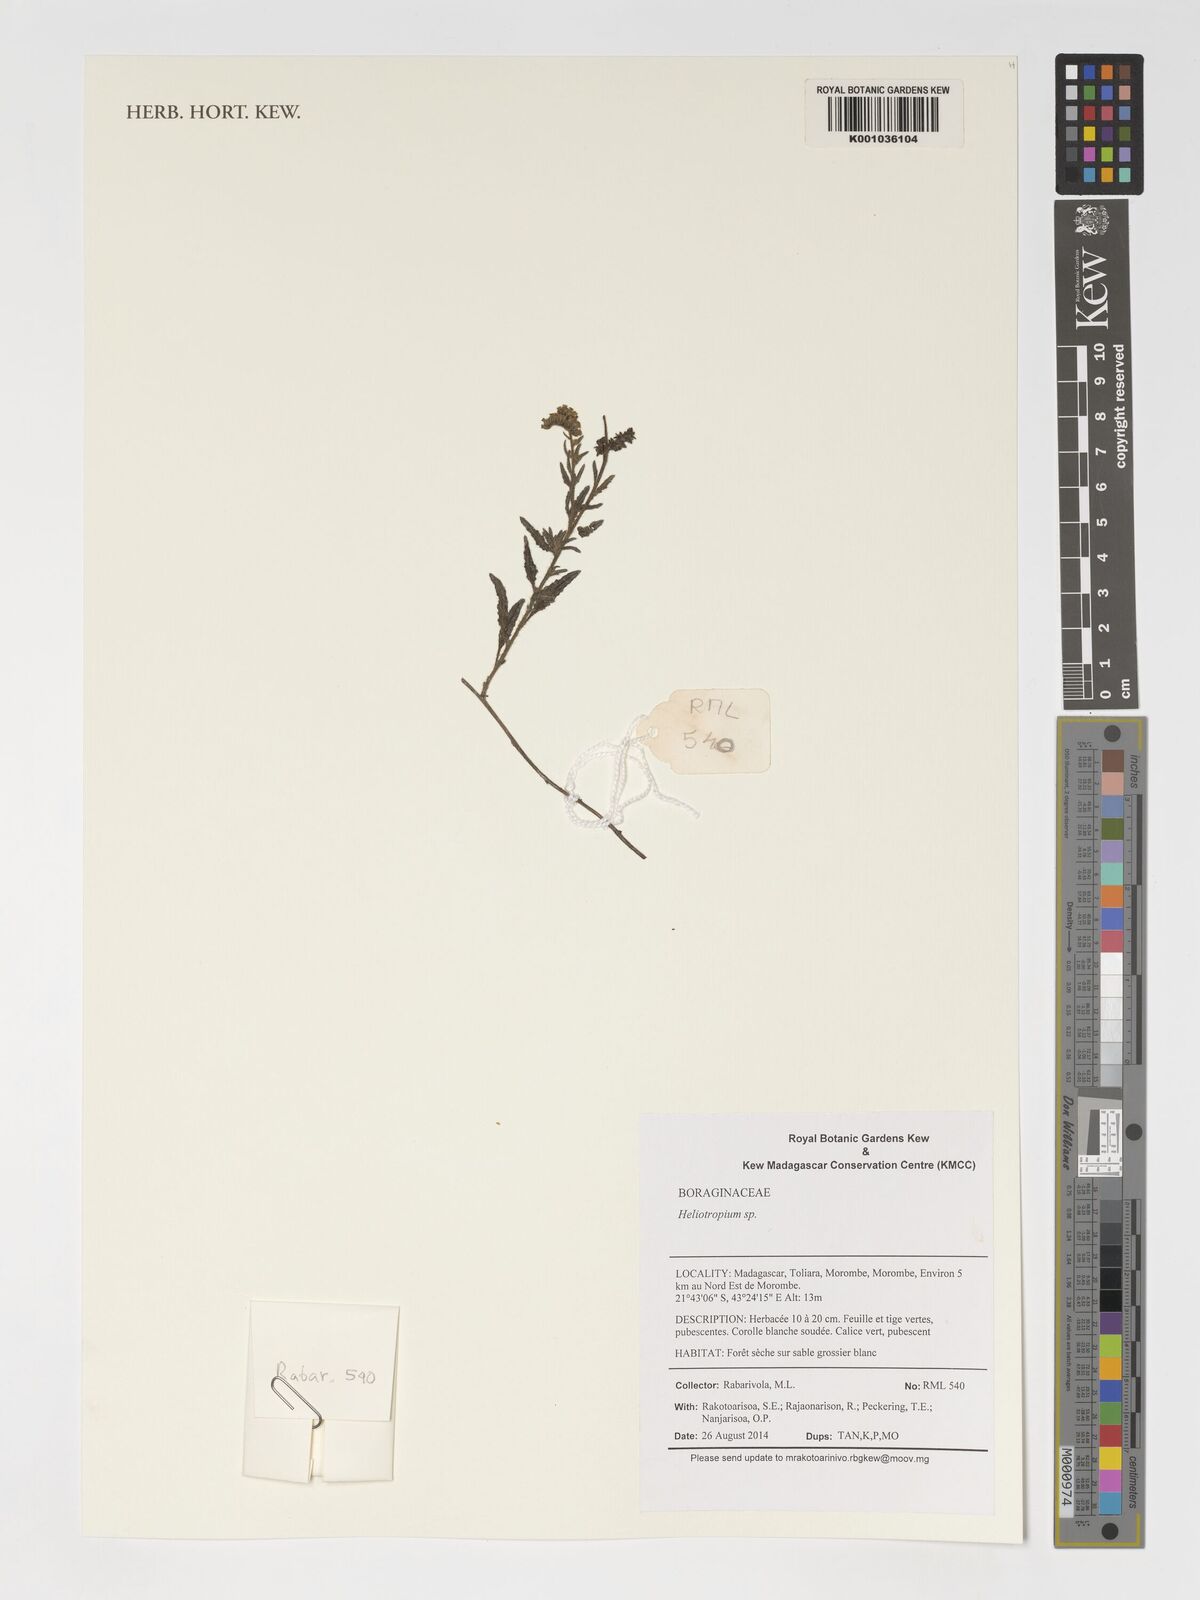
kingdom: Plantae
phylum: Tracheophyta
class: Magnoliopsida
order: Boraginales
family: Heliotropiaceae
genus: Heliotropium
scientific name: Heliotropium
